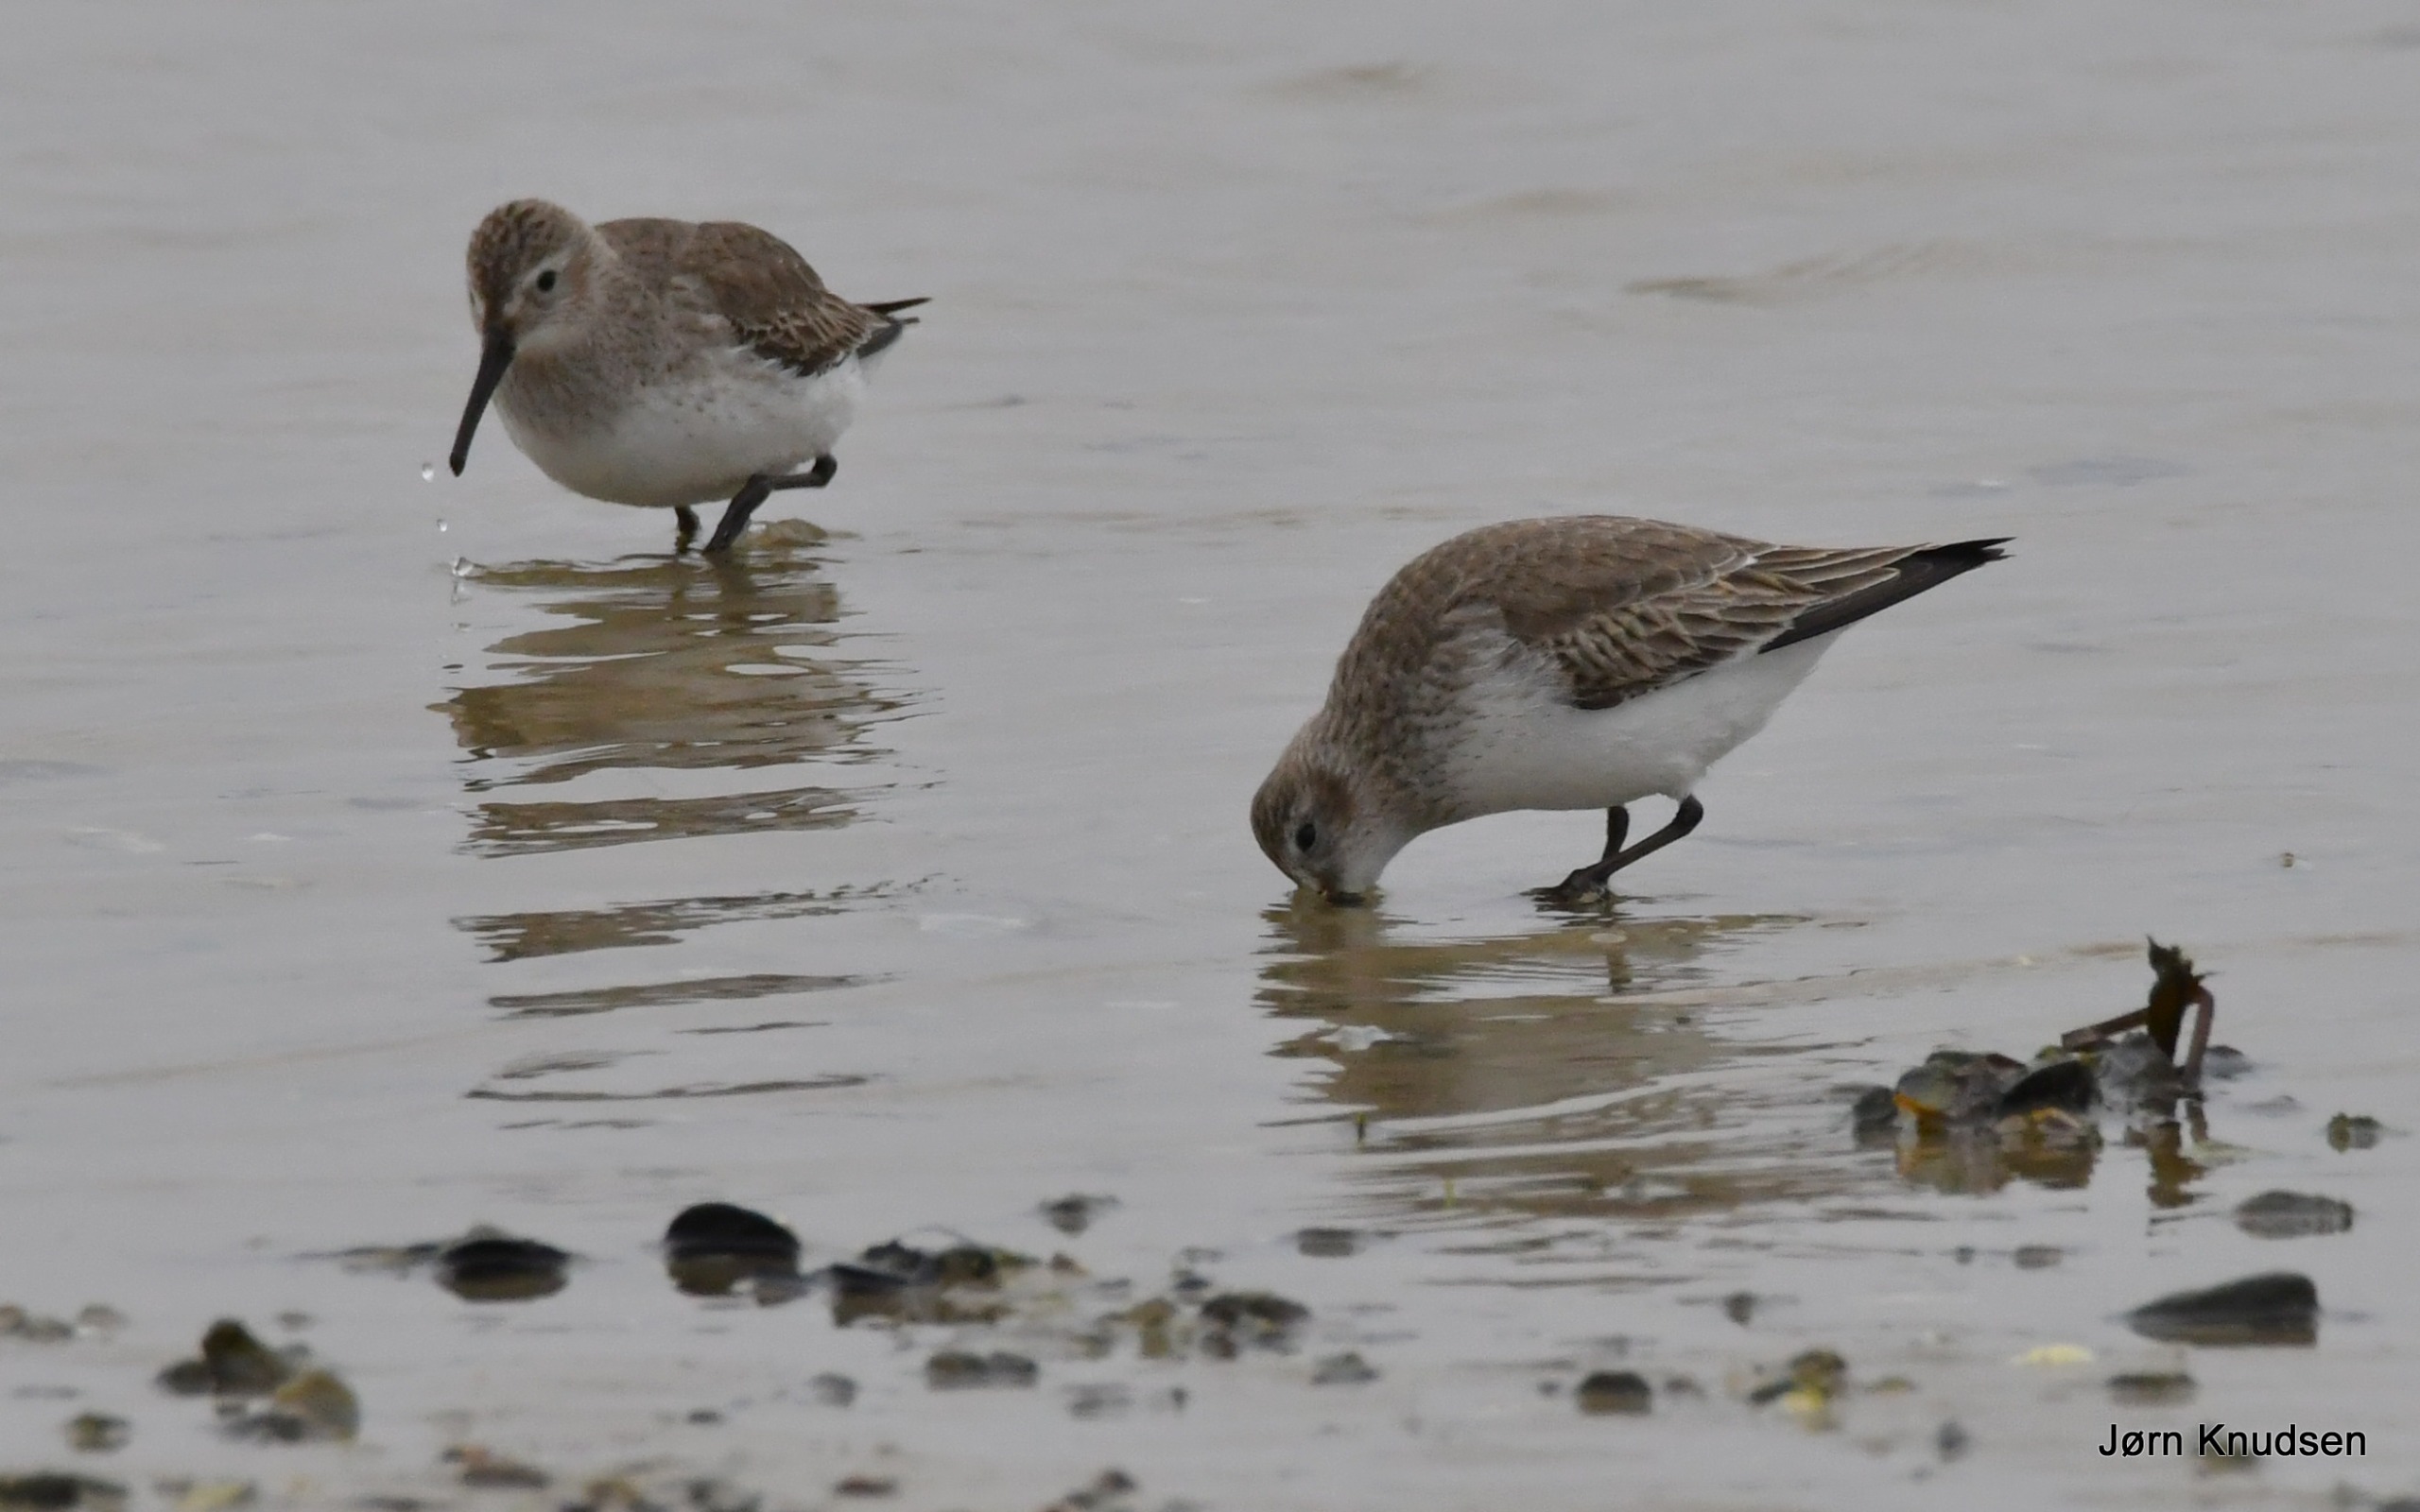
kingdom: Animalia
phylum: Chordata
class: Aves
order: Charadriiformes
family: Scolopacidae
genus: Calidris
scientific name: Calidris alpina
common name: Almindelig ryle
